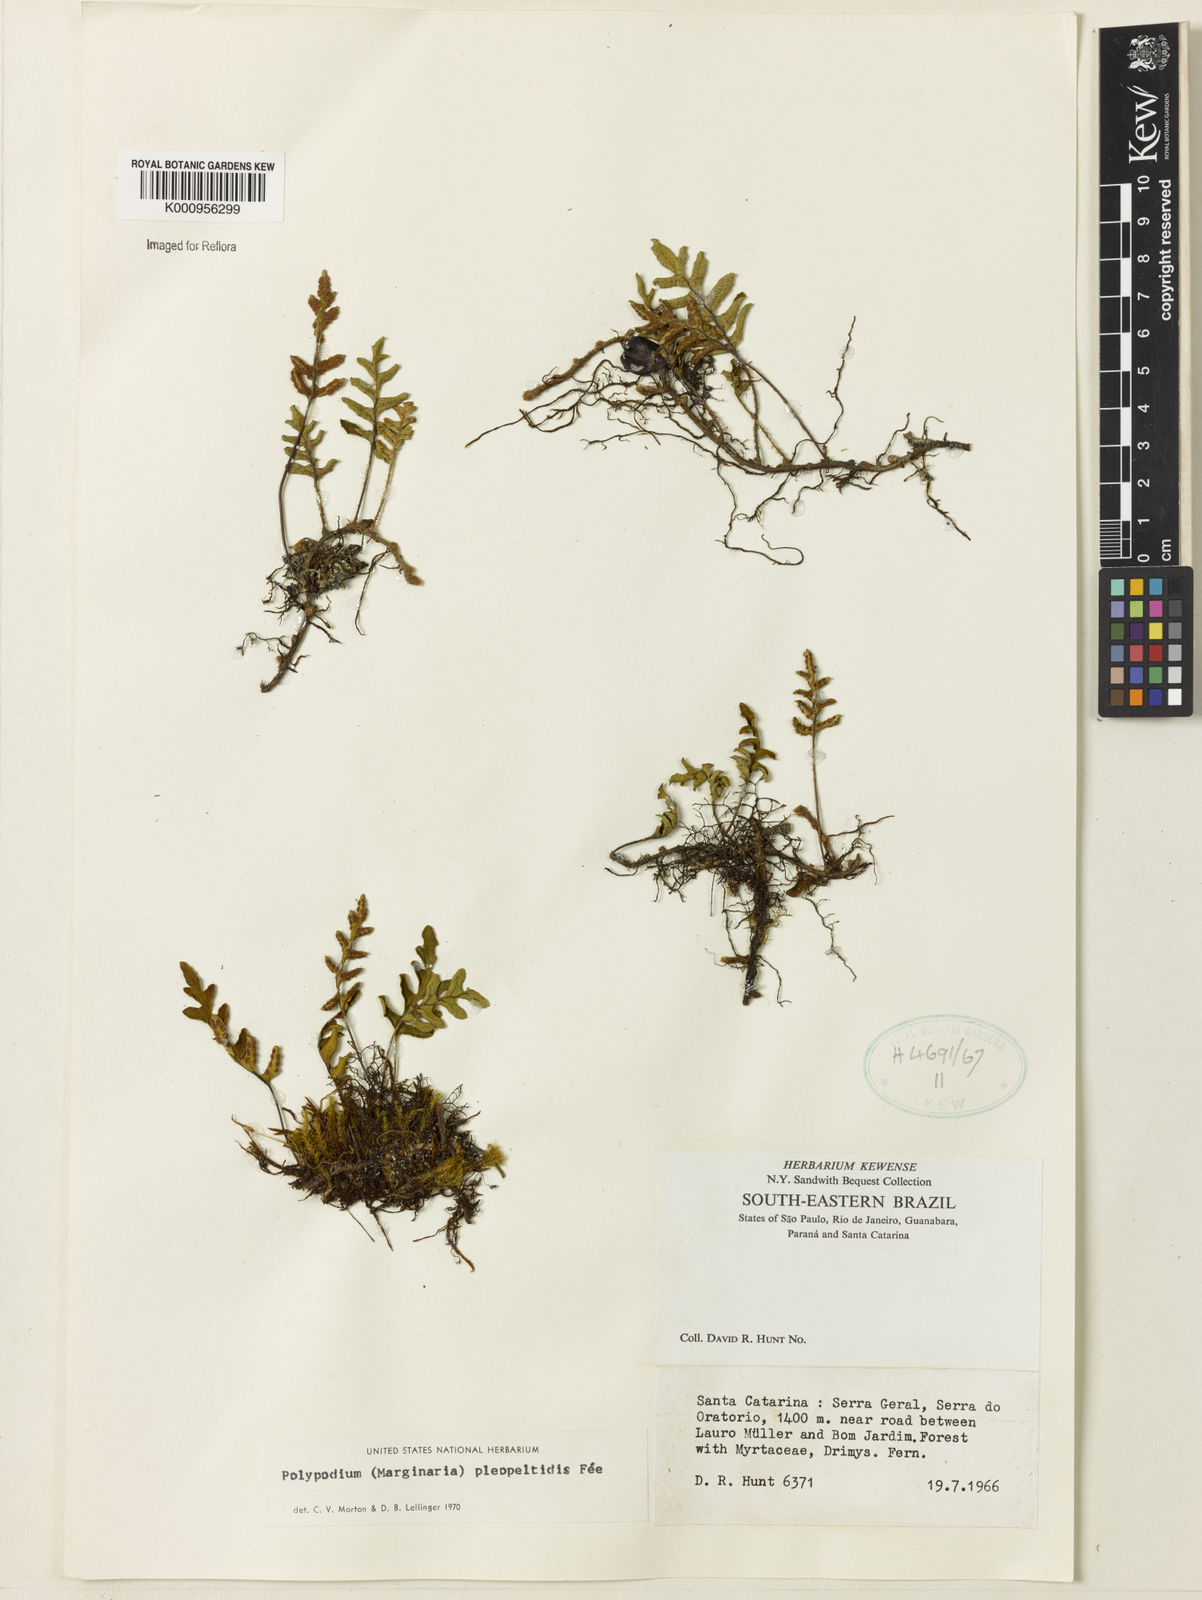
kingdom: Plantae
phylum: Tracheophyta
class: Polypodiopsida
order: Polypodiales
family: Polypodiaceae
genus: Polypodium
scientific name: Polypodium
